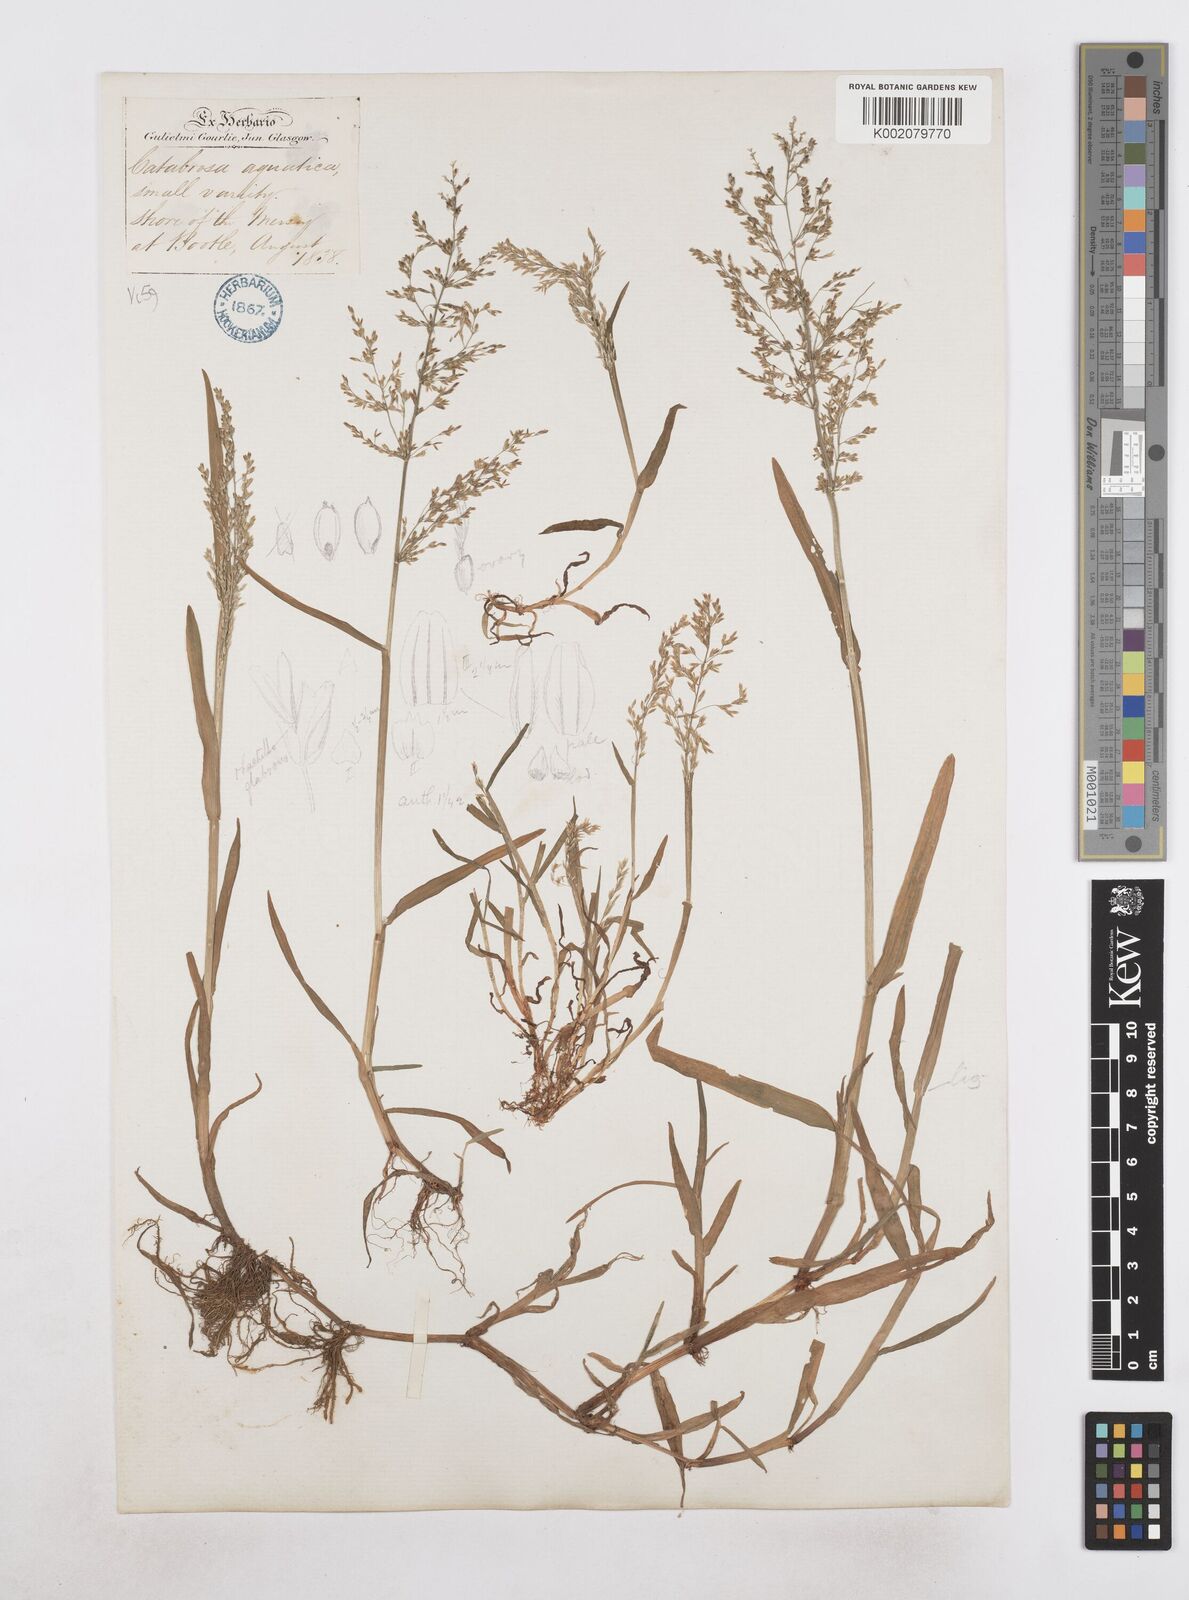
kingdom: Plantae
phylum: Tracheophyta
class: Liliopsida
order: Poales
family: Poaceae
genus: Catabrosa
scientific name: Catabrosa aquatica
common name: Whorl-grass
